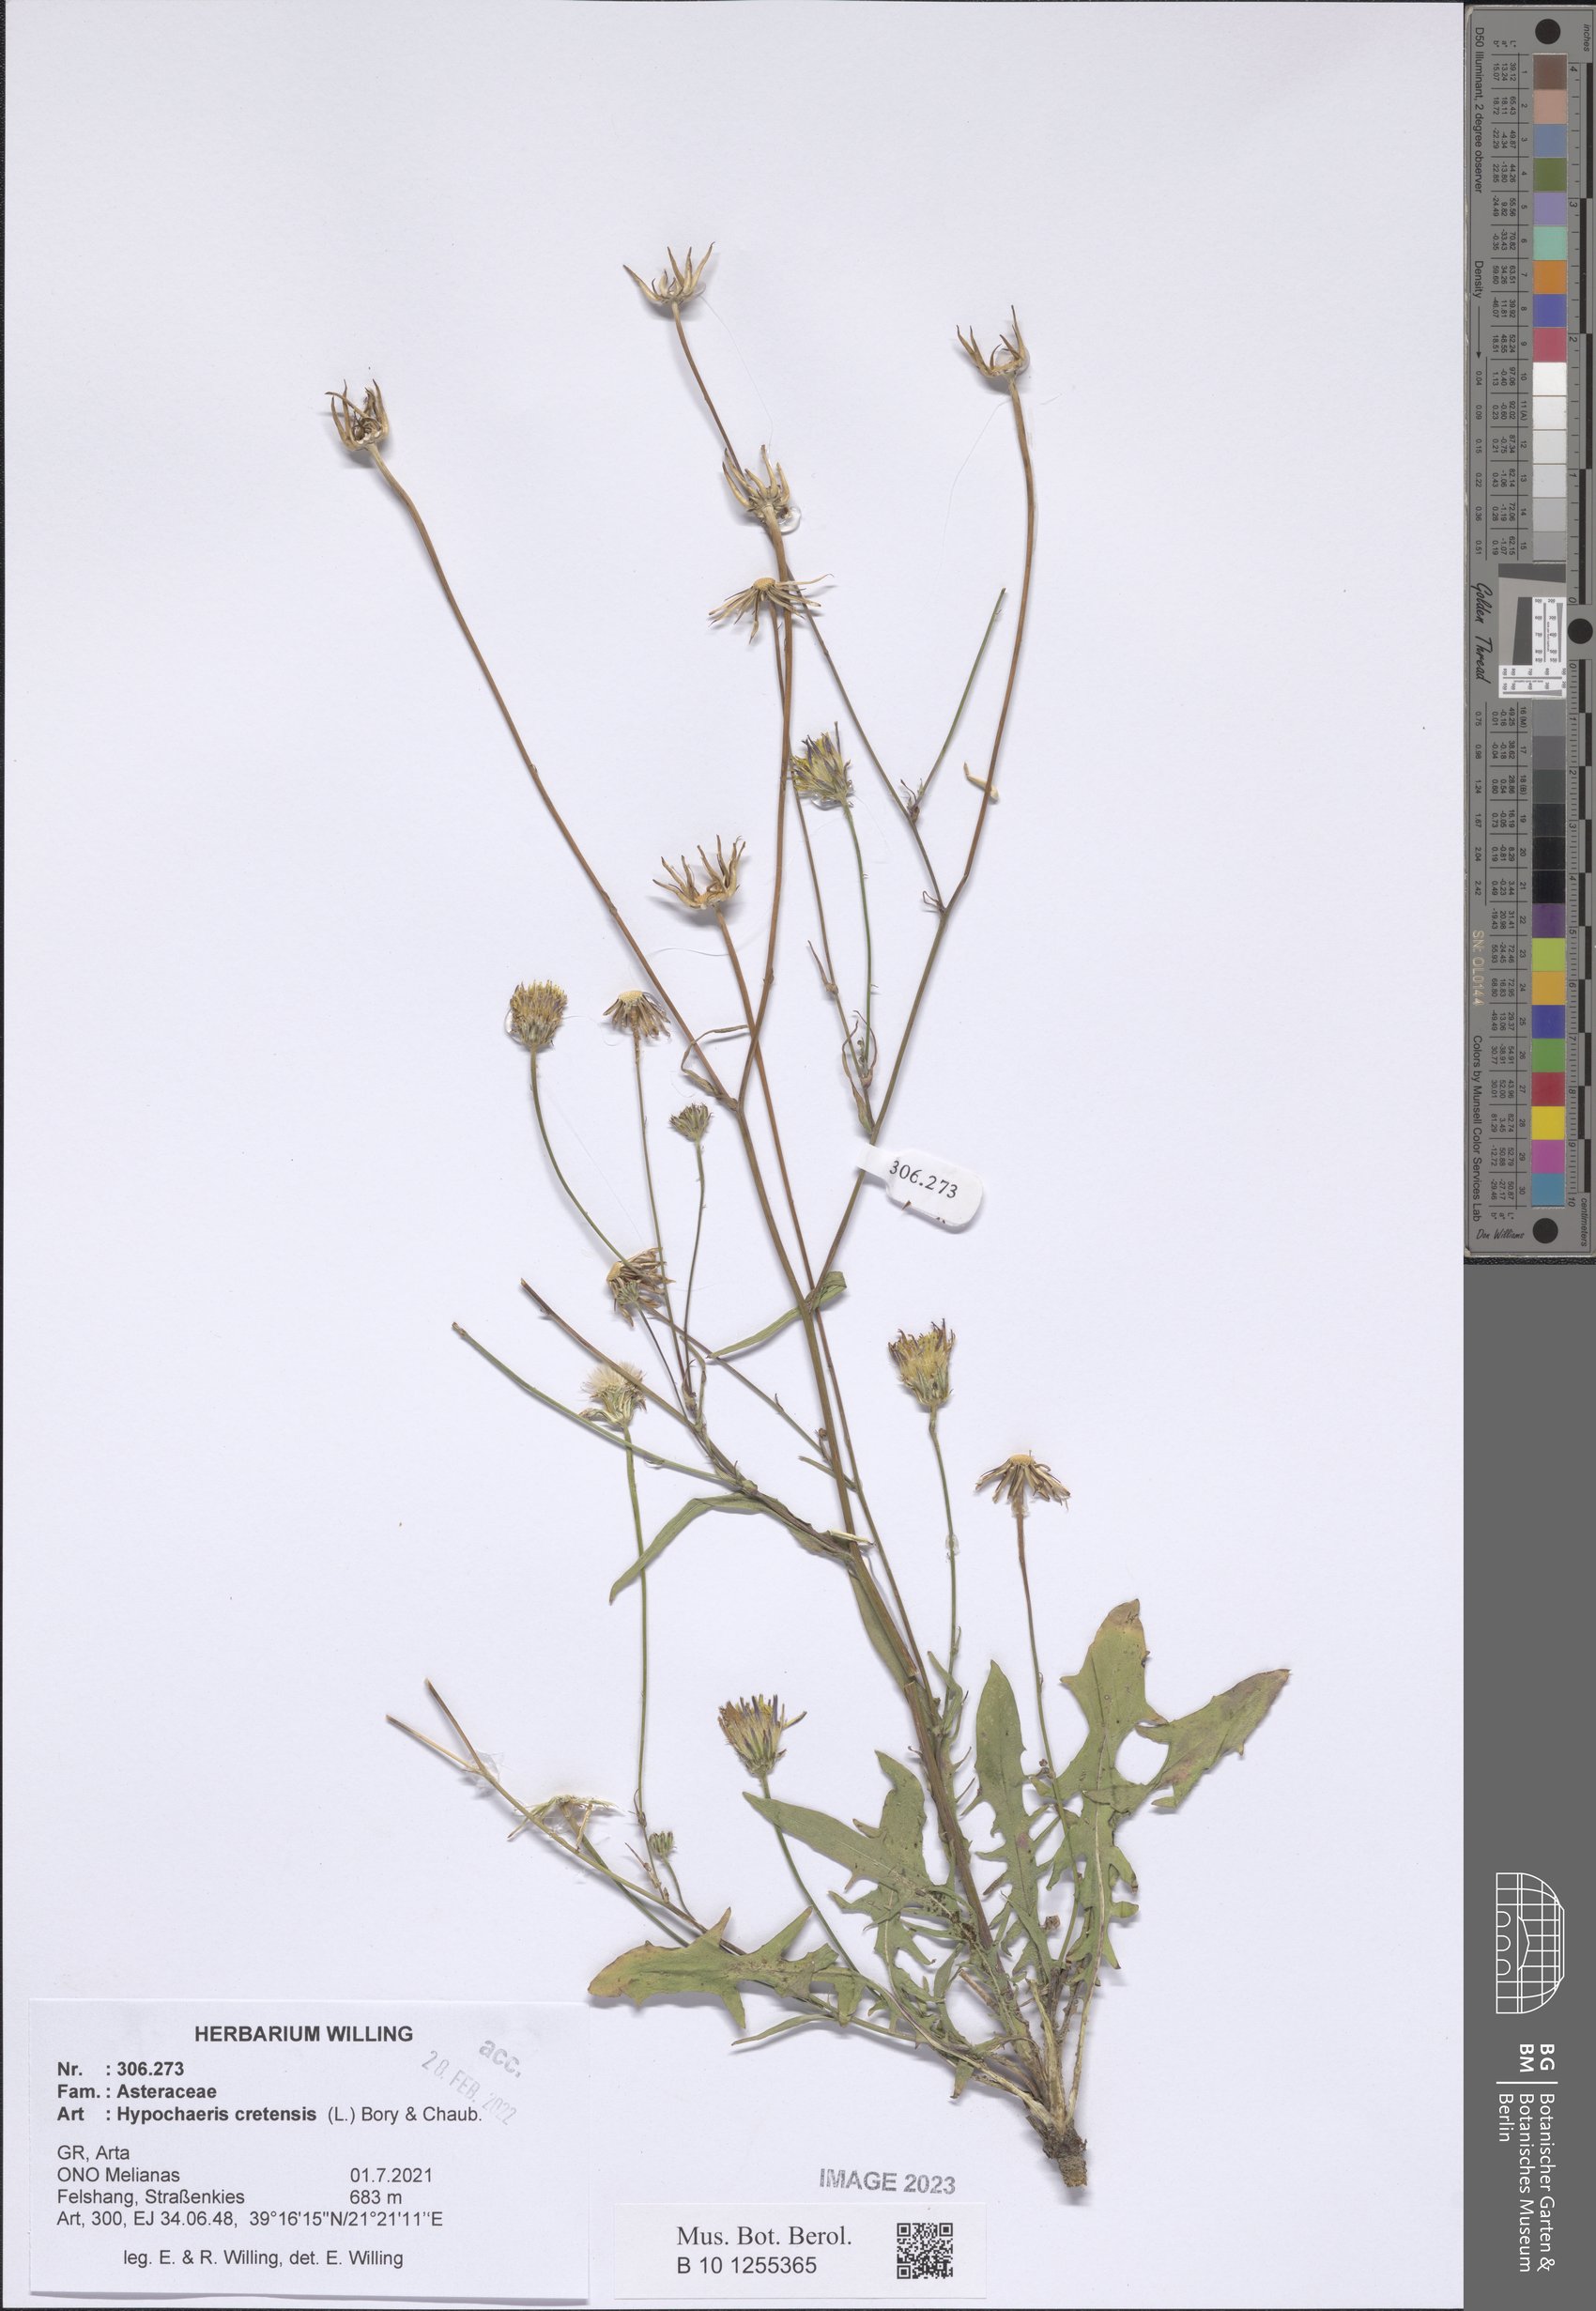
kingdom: Plantae
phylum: Tracheophyta
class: Magnoliopsida
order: Asterales
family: Asteraceae
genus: Hypochaeris
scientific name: Hypochaeris cretensis
